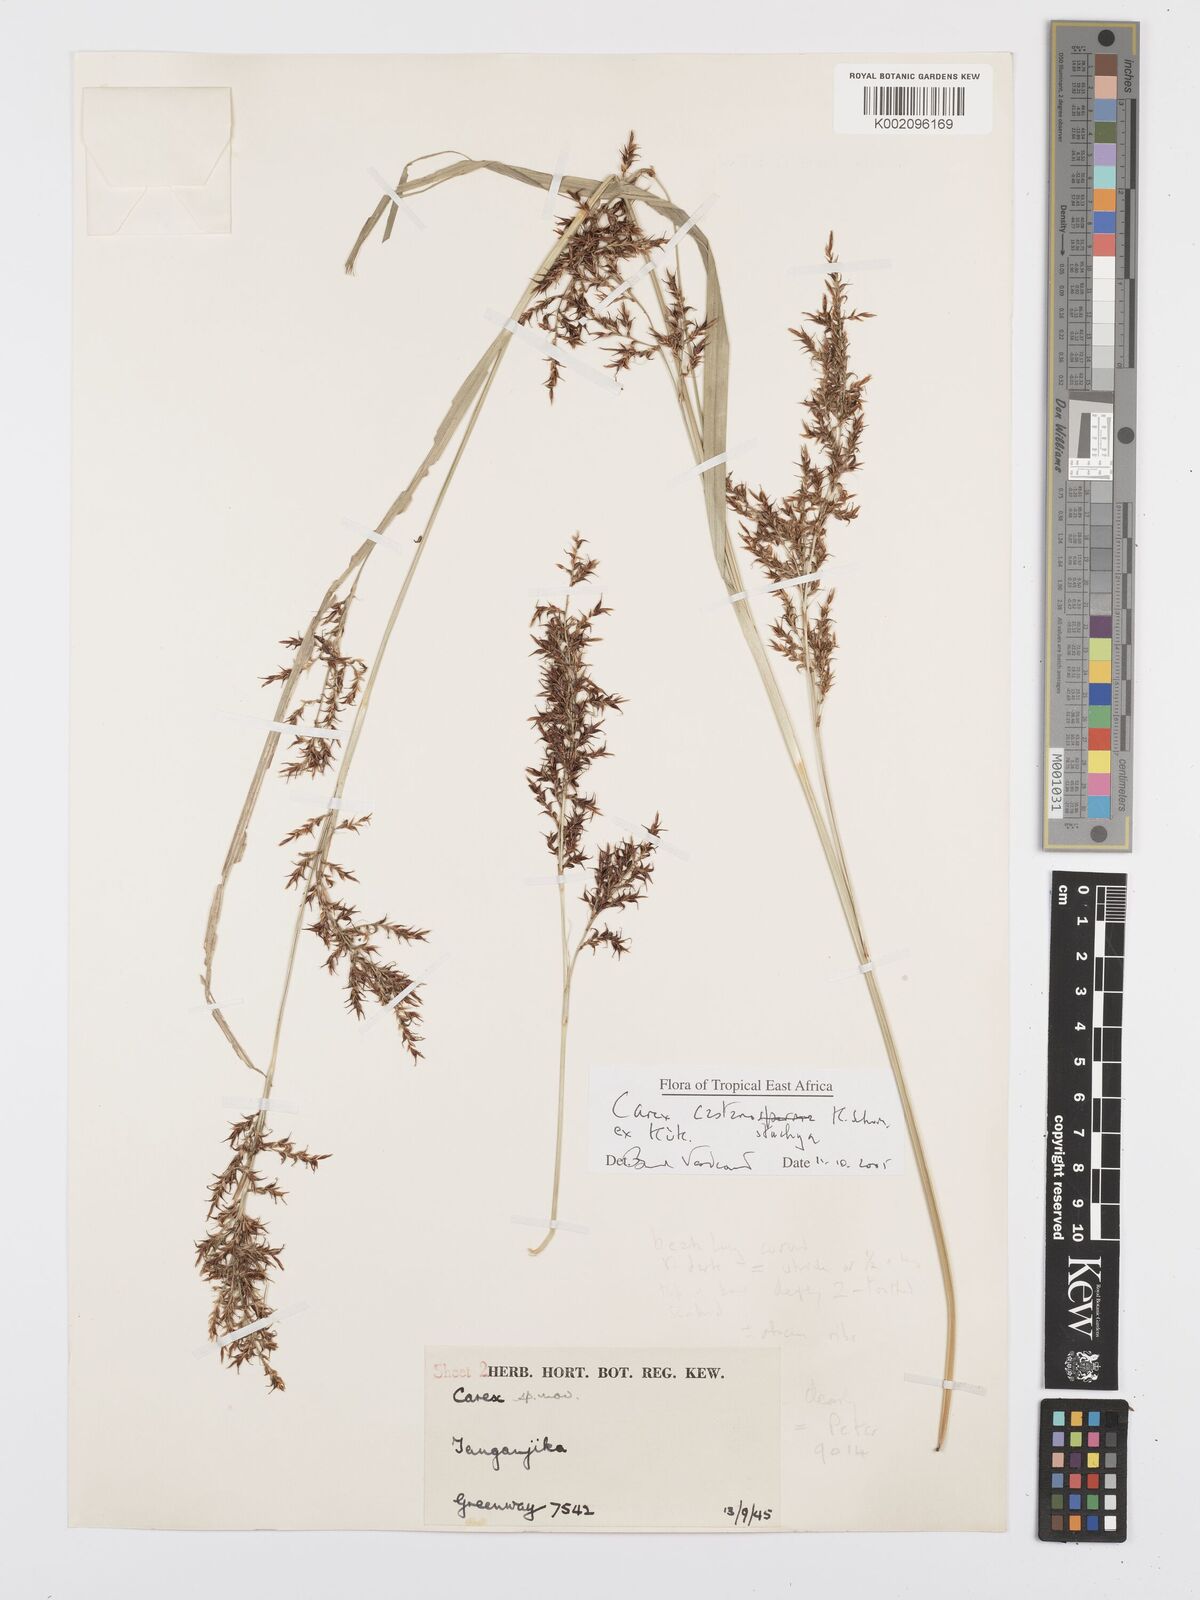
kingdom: Plantae
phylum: Tracheophyta
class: Liliopsida
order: Poales
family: Cyperaceae
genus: Carex
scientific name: Carex castanostachya
